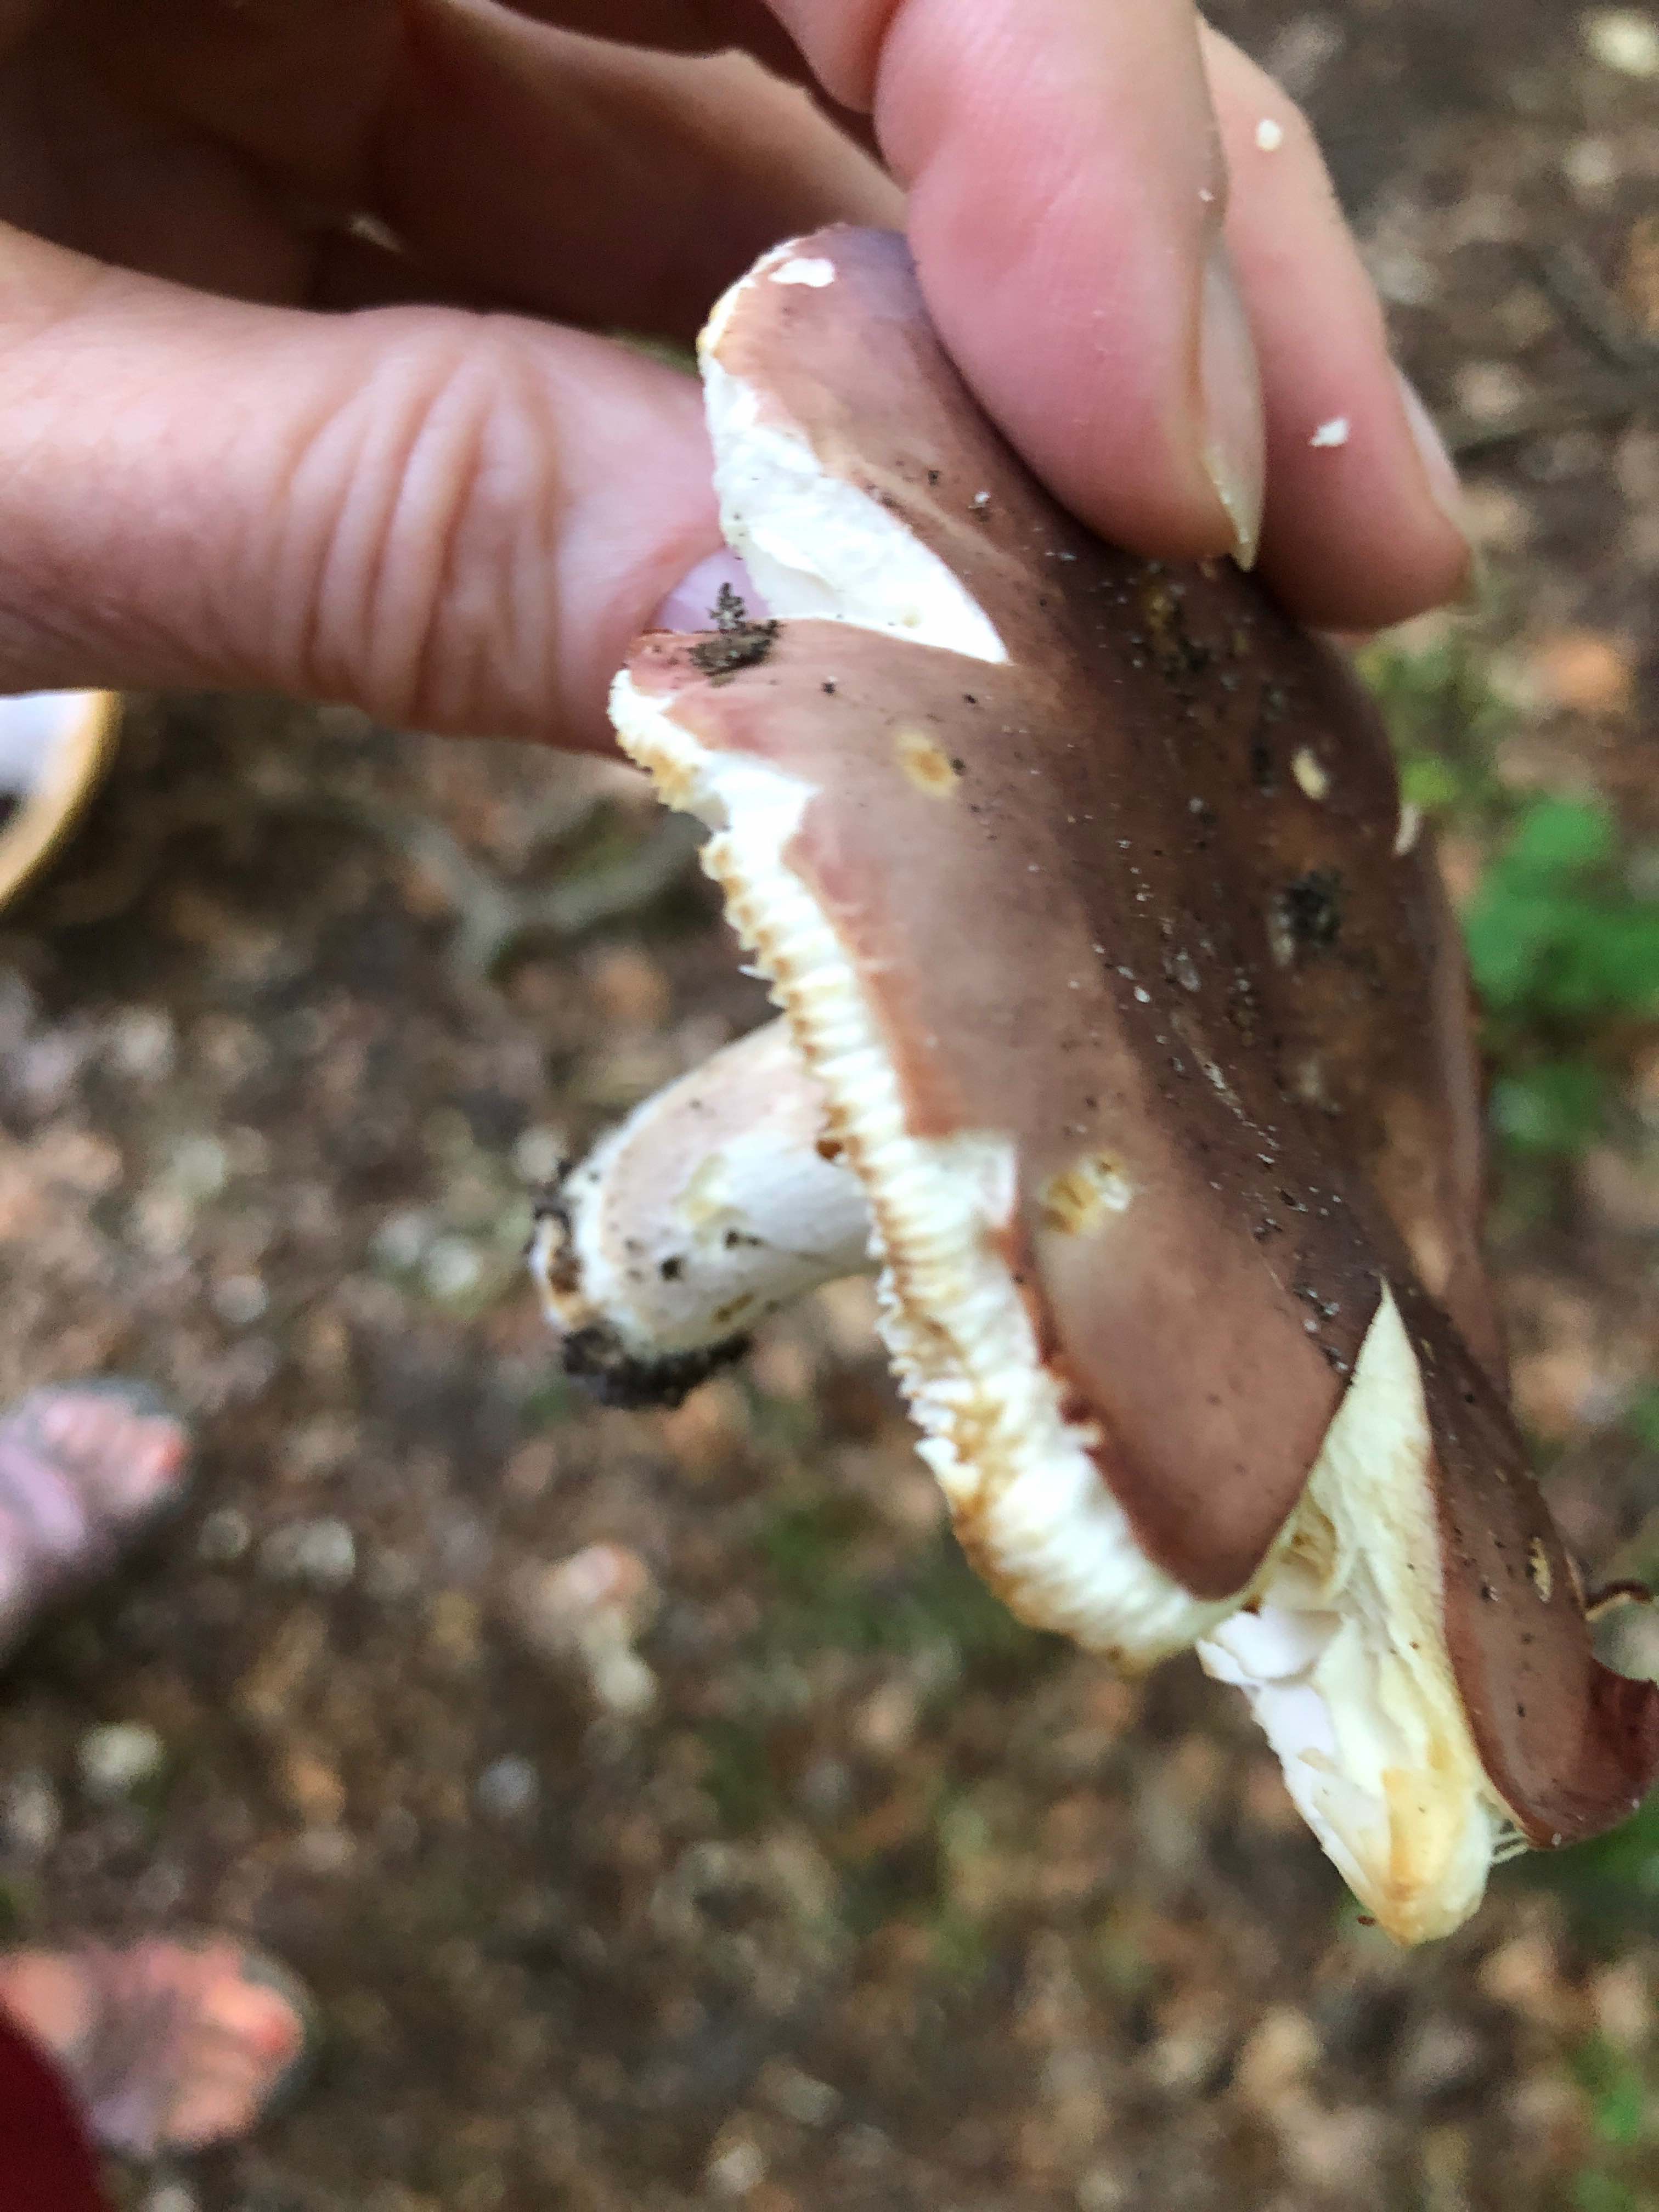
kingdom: Fungi
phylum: Basidiomycota
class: Agaricomycetes
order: Russulales
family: Russulaceae
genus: Russula
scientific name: Russula vesca
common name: spiselig skørhat
